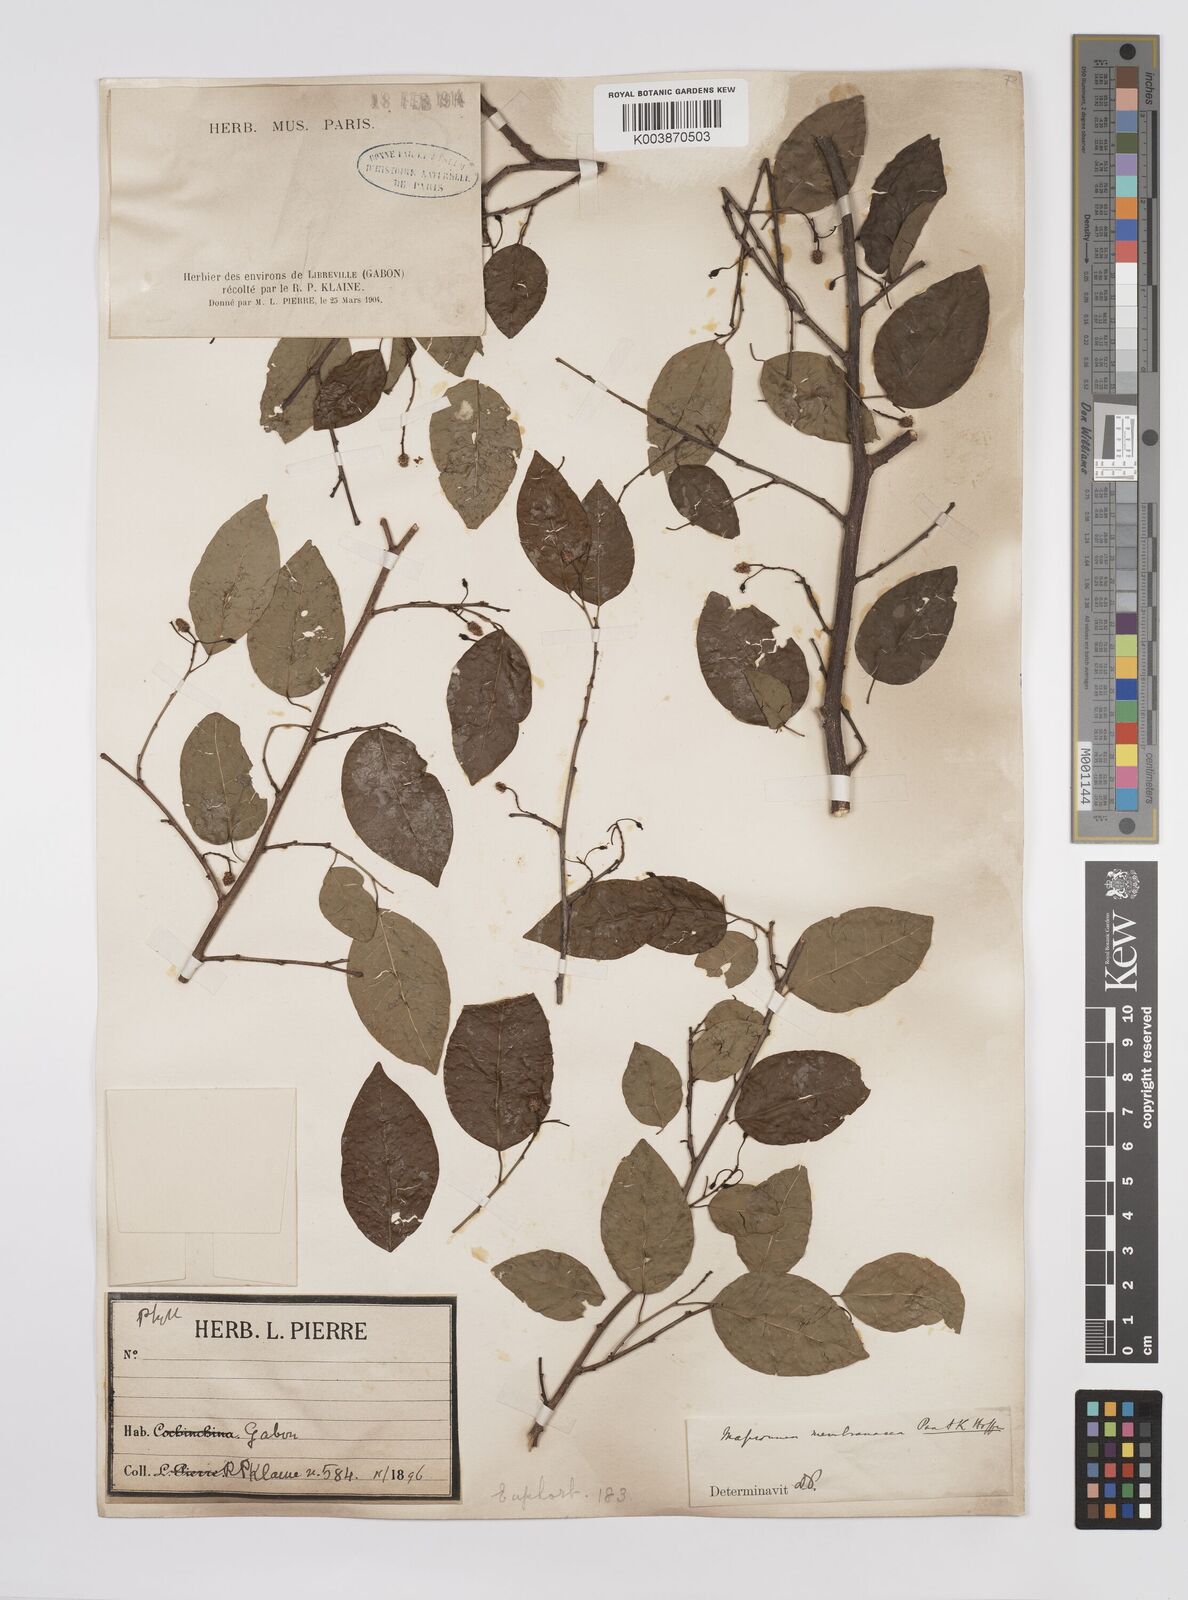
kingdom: Plantae
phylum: Tracheophyta
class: Magnoliopsida
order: Malpighiales
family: Euphorbiaceae
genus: Maprounea
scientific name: Maprounea membranacea
